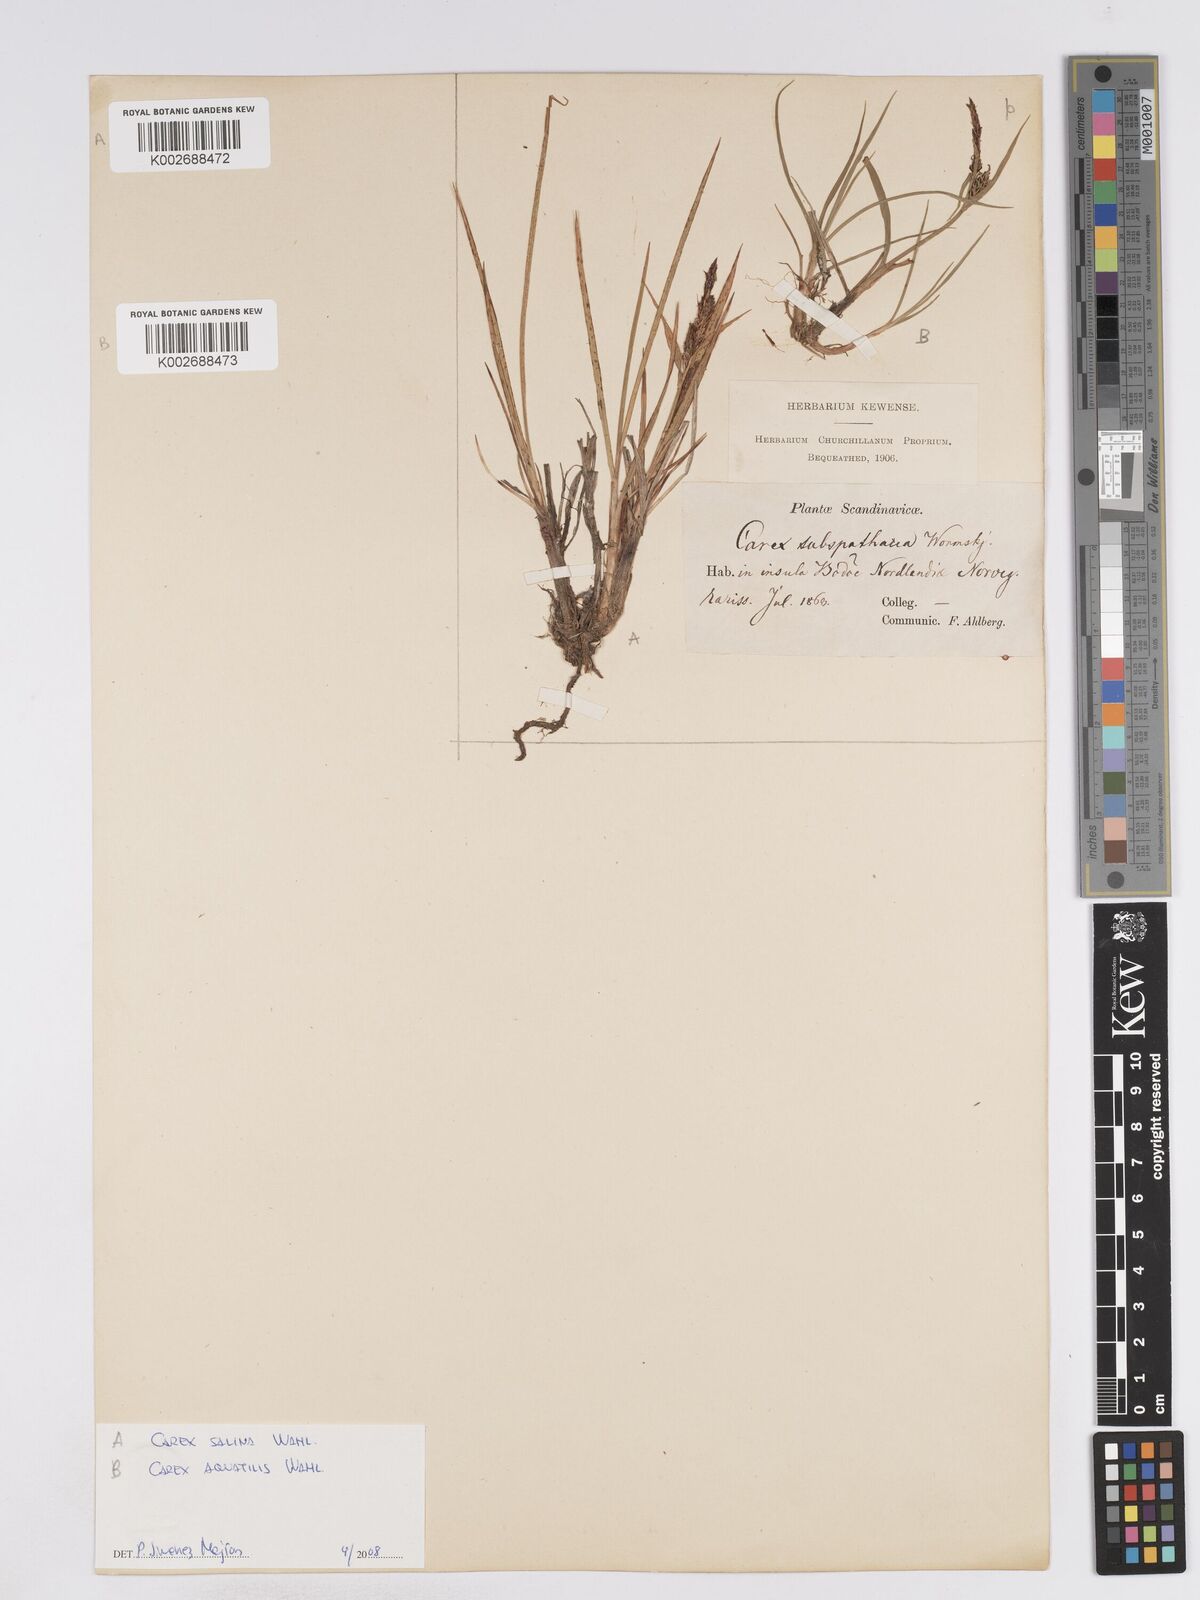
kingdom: Plantae
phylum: Tracheophyta
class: Liliopsida
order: Poales
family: Cyperaceae
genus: Carex
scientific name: Carex salina
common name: Saltmarsh sedge
